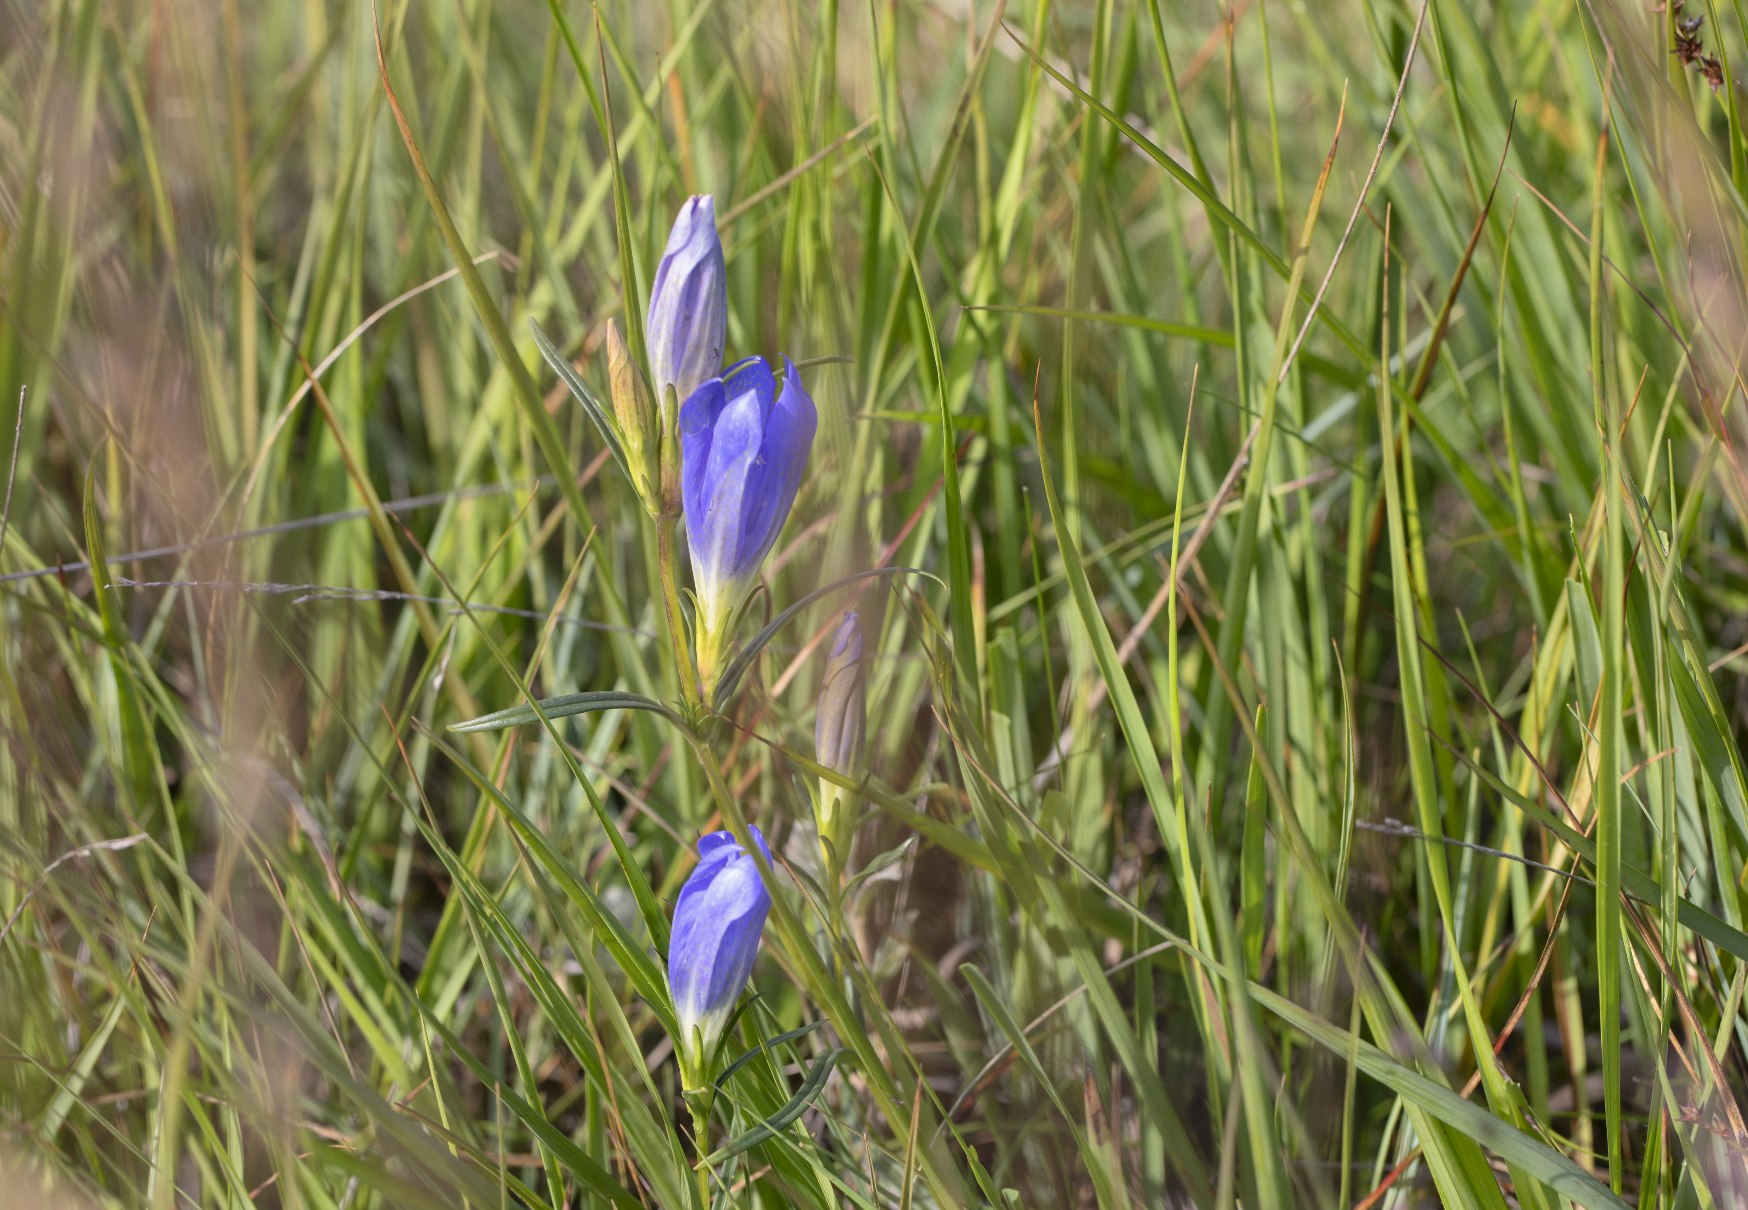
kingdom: Plantae
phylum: Tracheophyta
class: Magnoliopsida
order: Gentianales
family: Gentianaceae
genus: Gentiana
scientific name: Gentiana pneumonanthe
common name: Klokke-ensian
